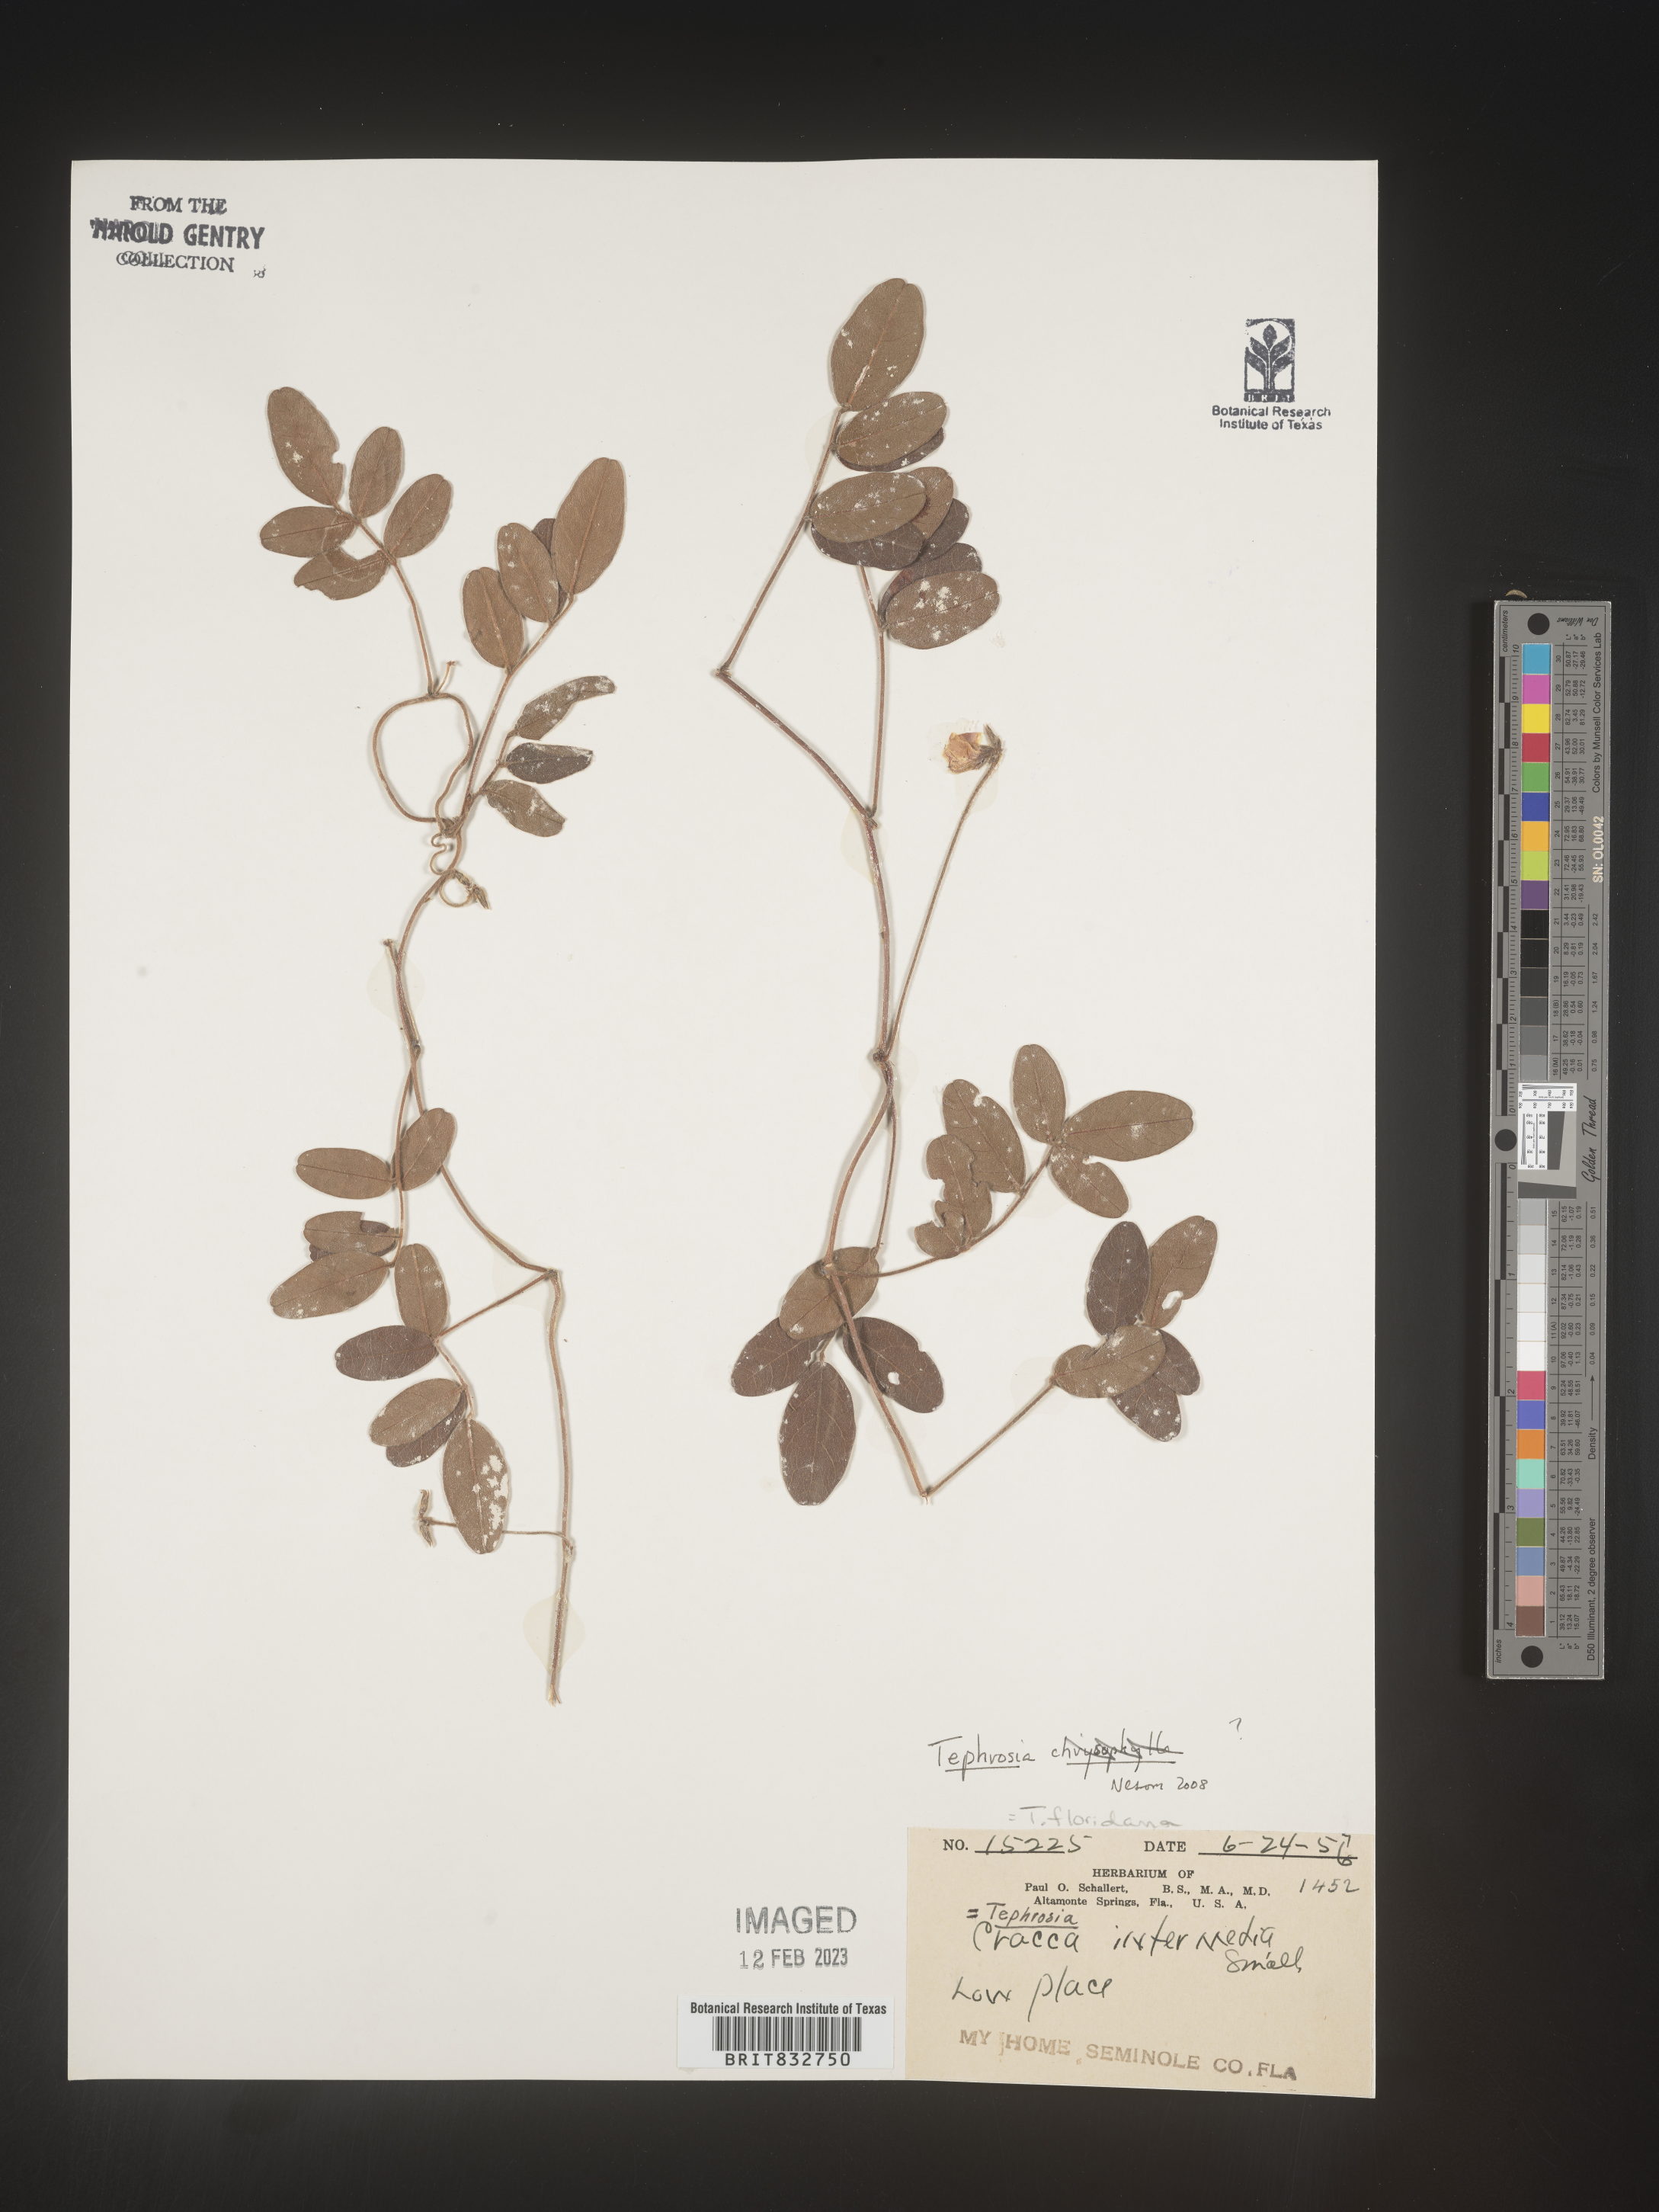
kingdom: Plantae
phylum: Tracheophyta
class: Magnoliopsida
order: Fabales
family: Fabaceae
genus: Tephrosia
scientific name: Tephrosia
